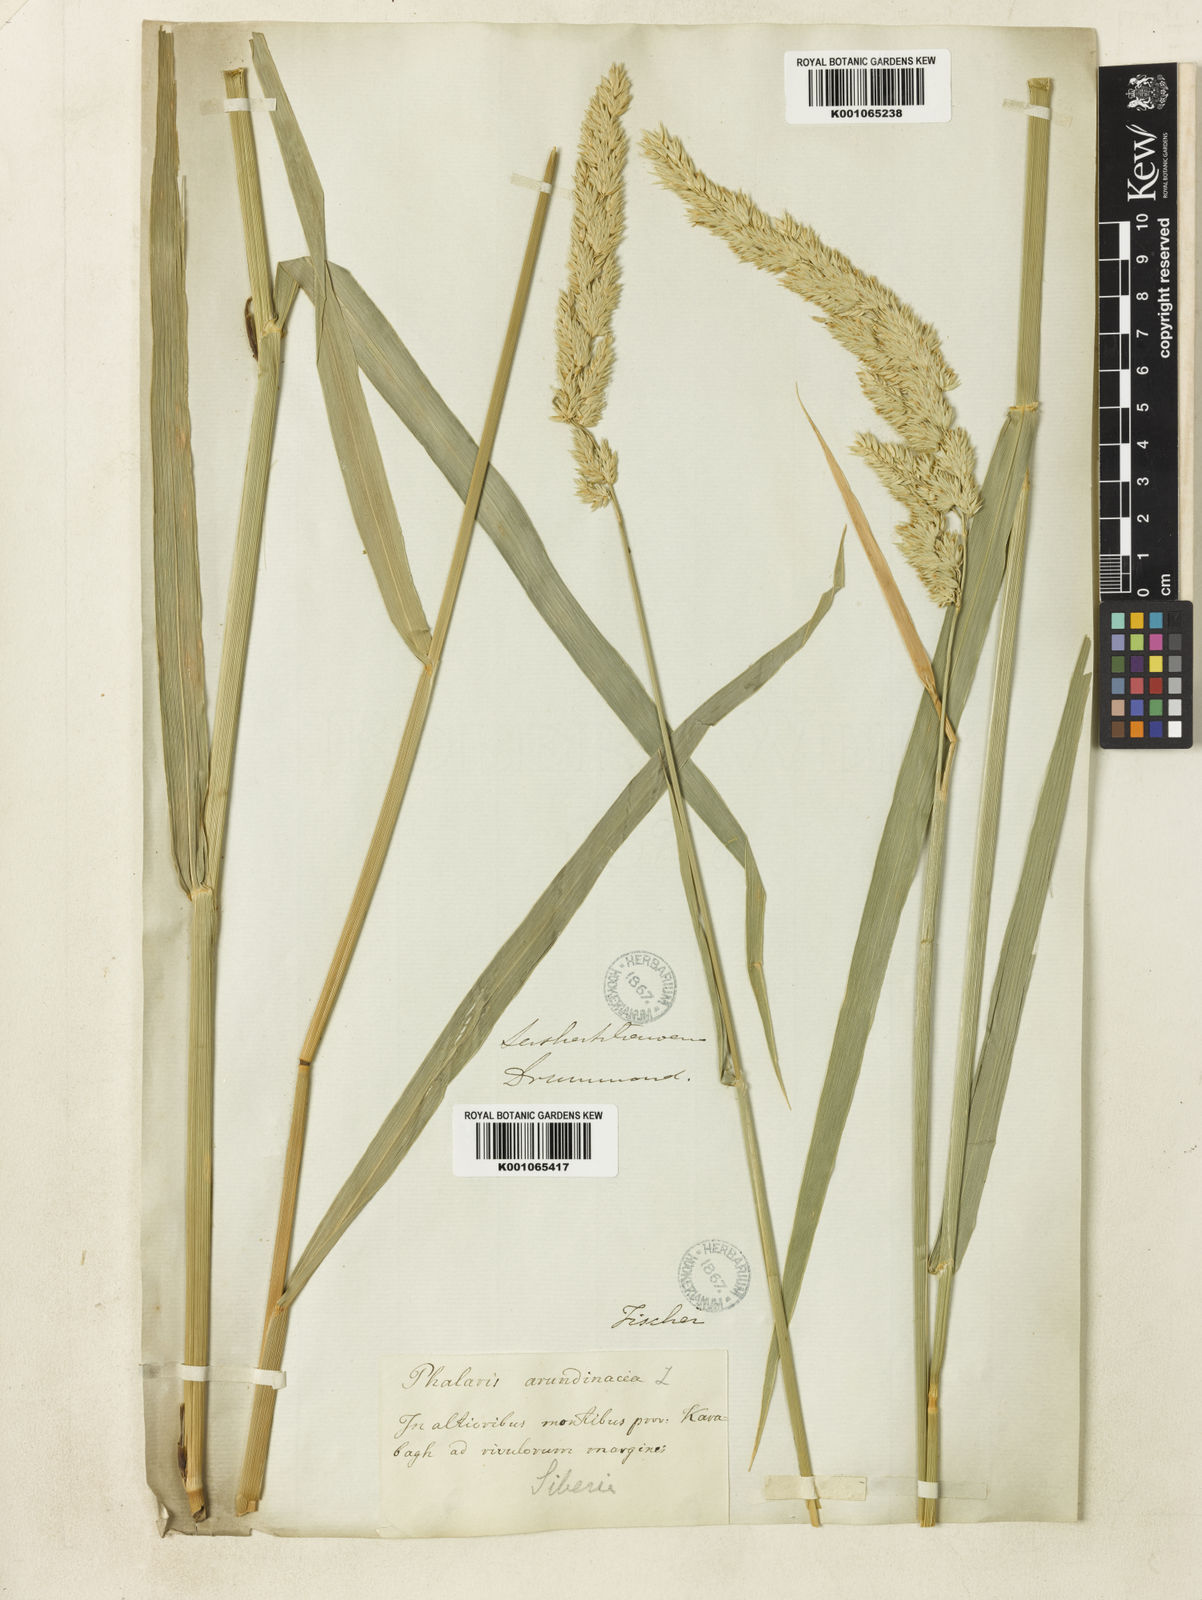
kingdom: Plantae
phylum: Tracheophyta
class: Liliopsida
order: Poales
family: Poaceae
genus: Phalaris
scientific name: Phalaris arundinacea
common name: Reed canary-grass
